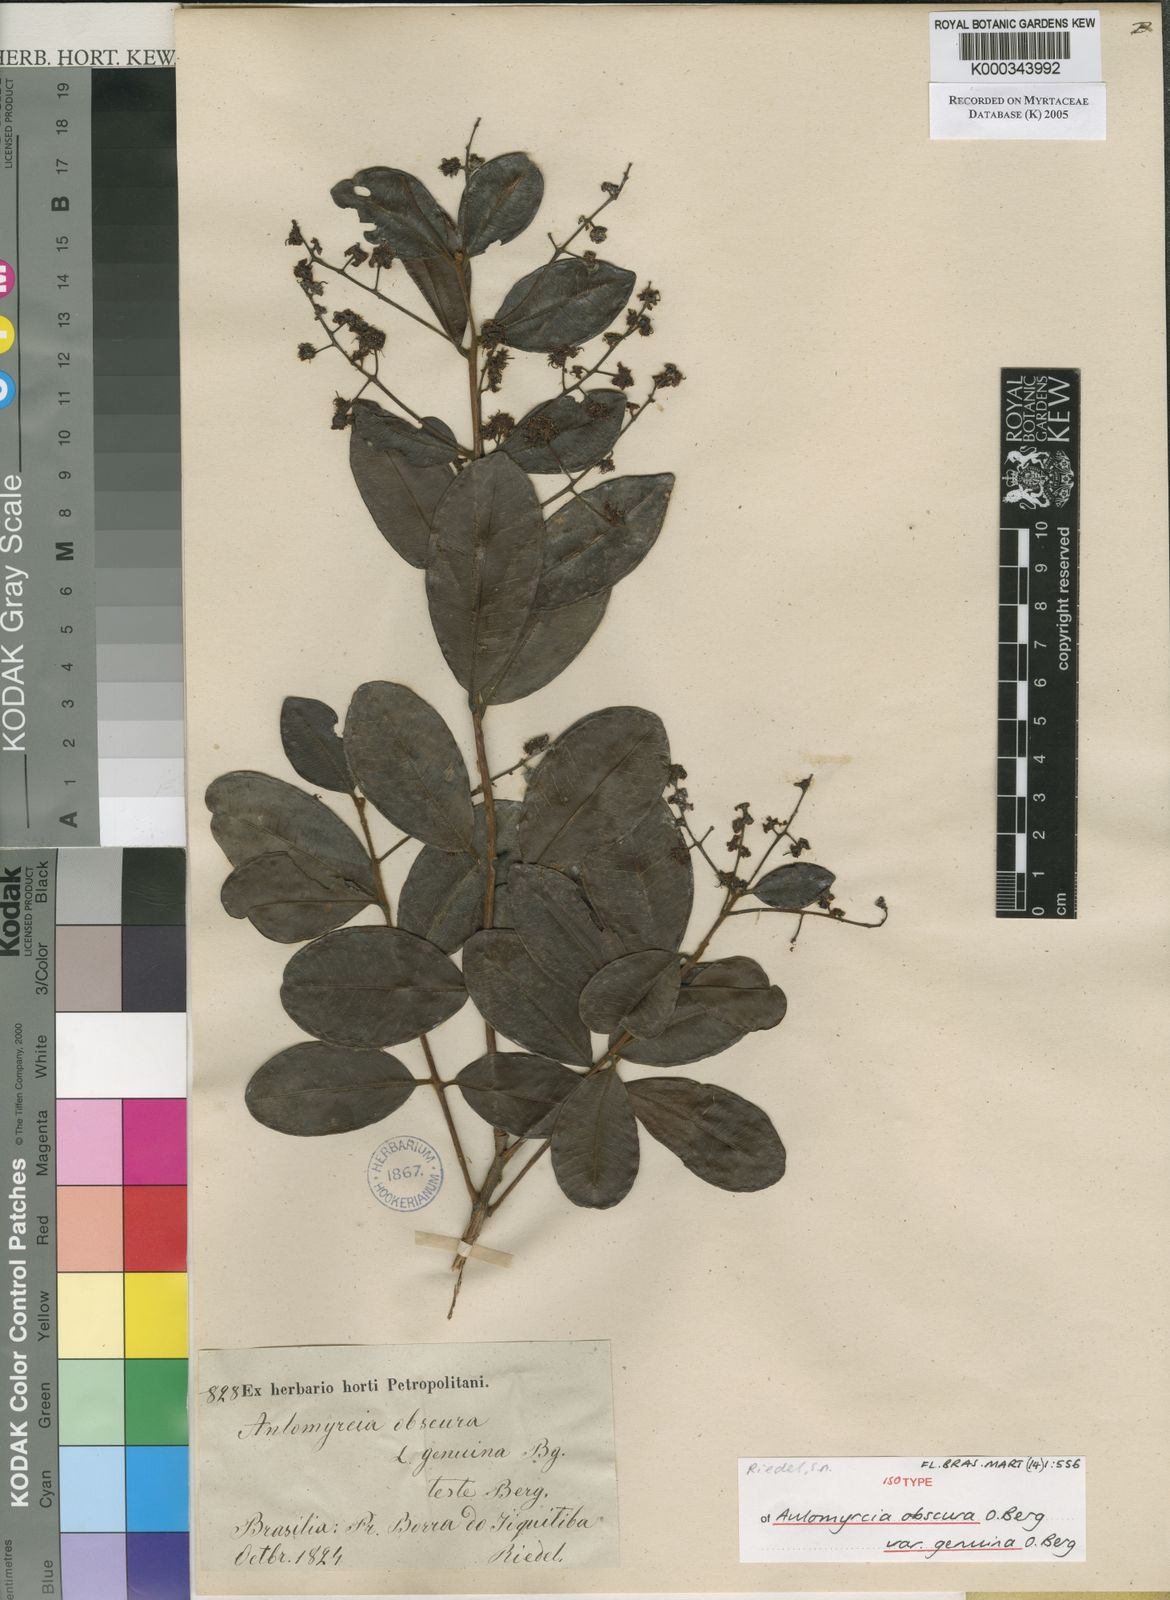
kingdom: Plantae
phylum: Tracheophyta
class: Magnoliopsida
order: Myrtales
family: Myrtaceae
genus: Myrcia
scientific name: Myrcia guianensis
